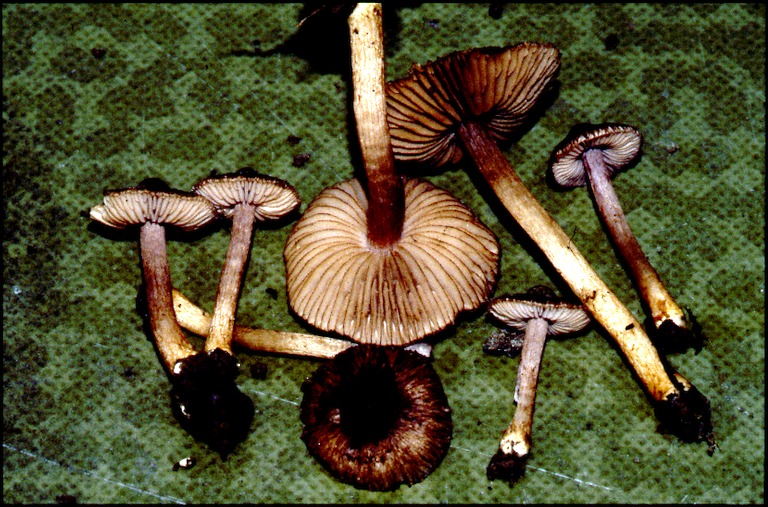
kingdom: Fungi
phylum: Basidiomycota
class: Agaricomycetes
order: Agaricales
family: Inocybaceae
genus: Inocybe
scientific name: Inocybe amethystina
